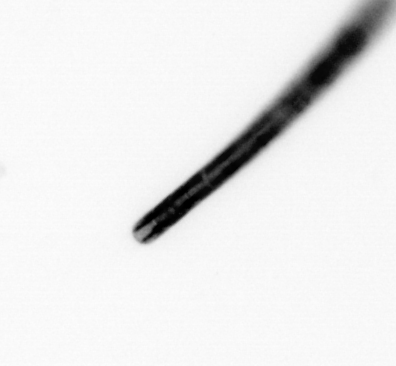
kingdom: Chromista
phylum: Ochrophyta
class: Bacillariophyceae
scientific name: Bacillariophyceae
